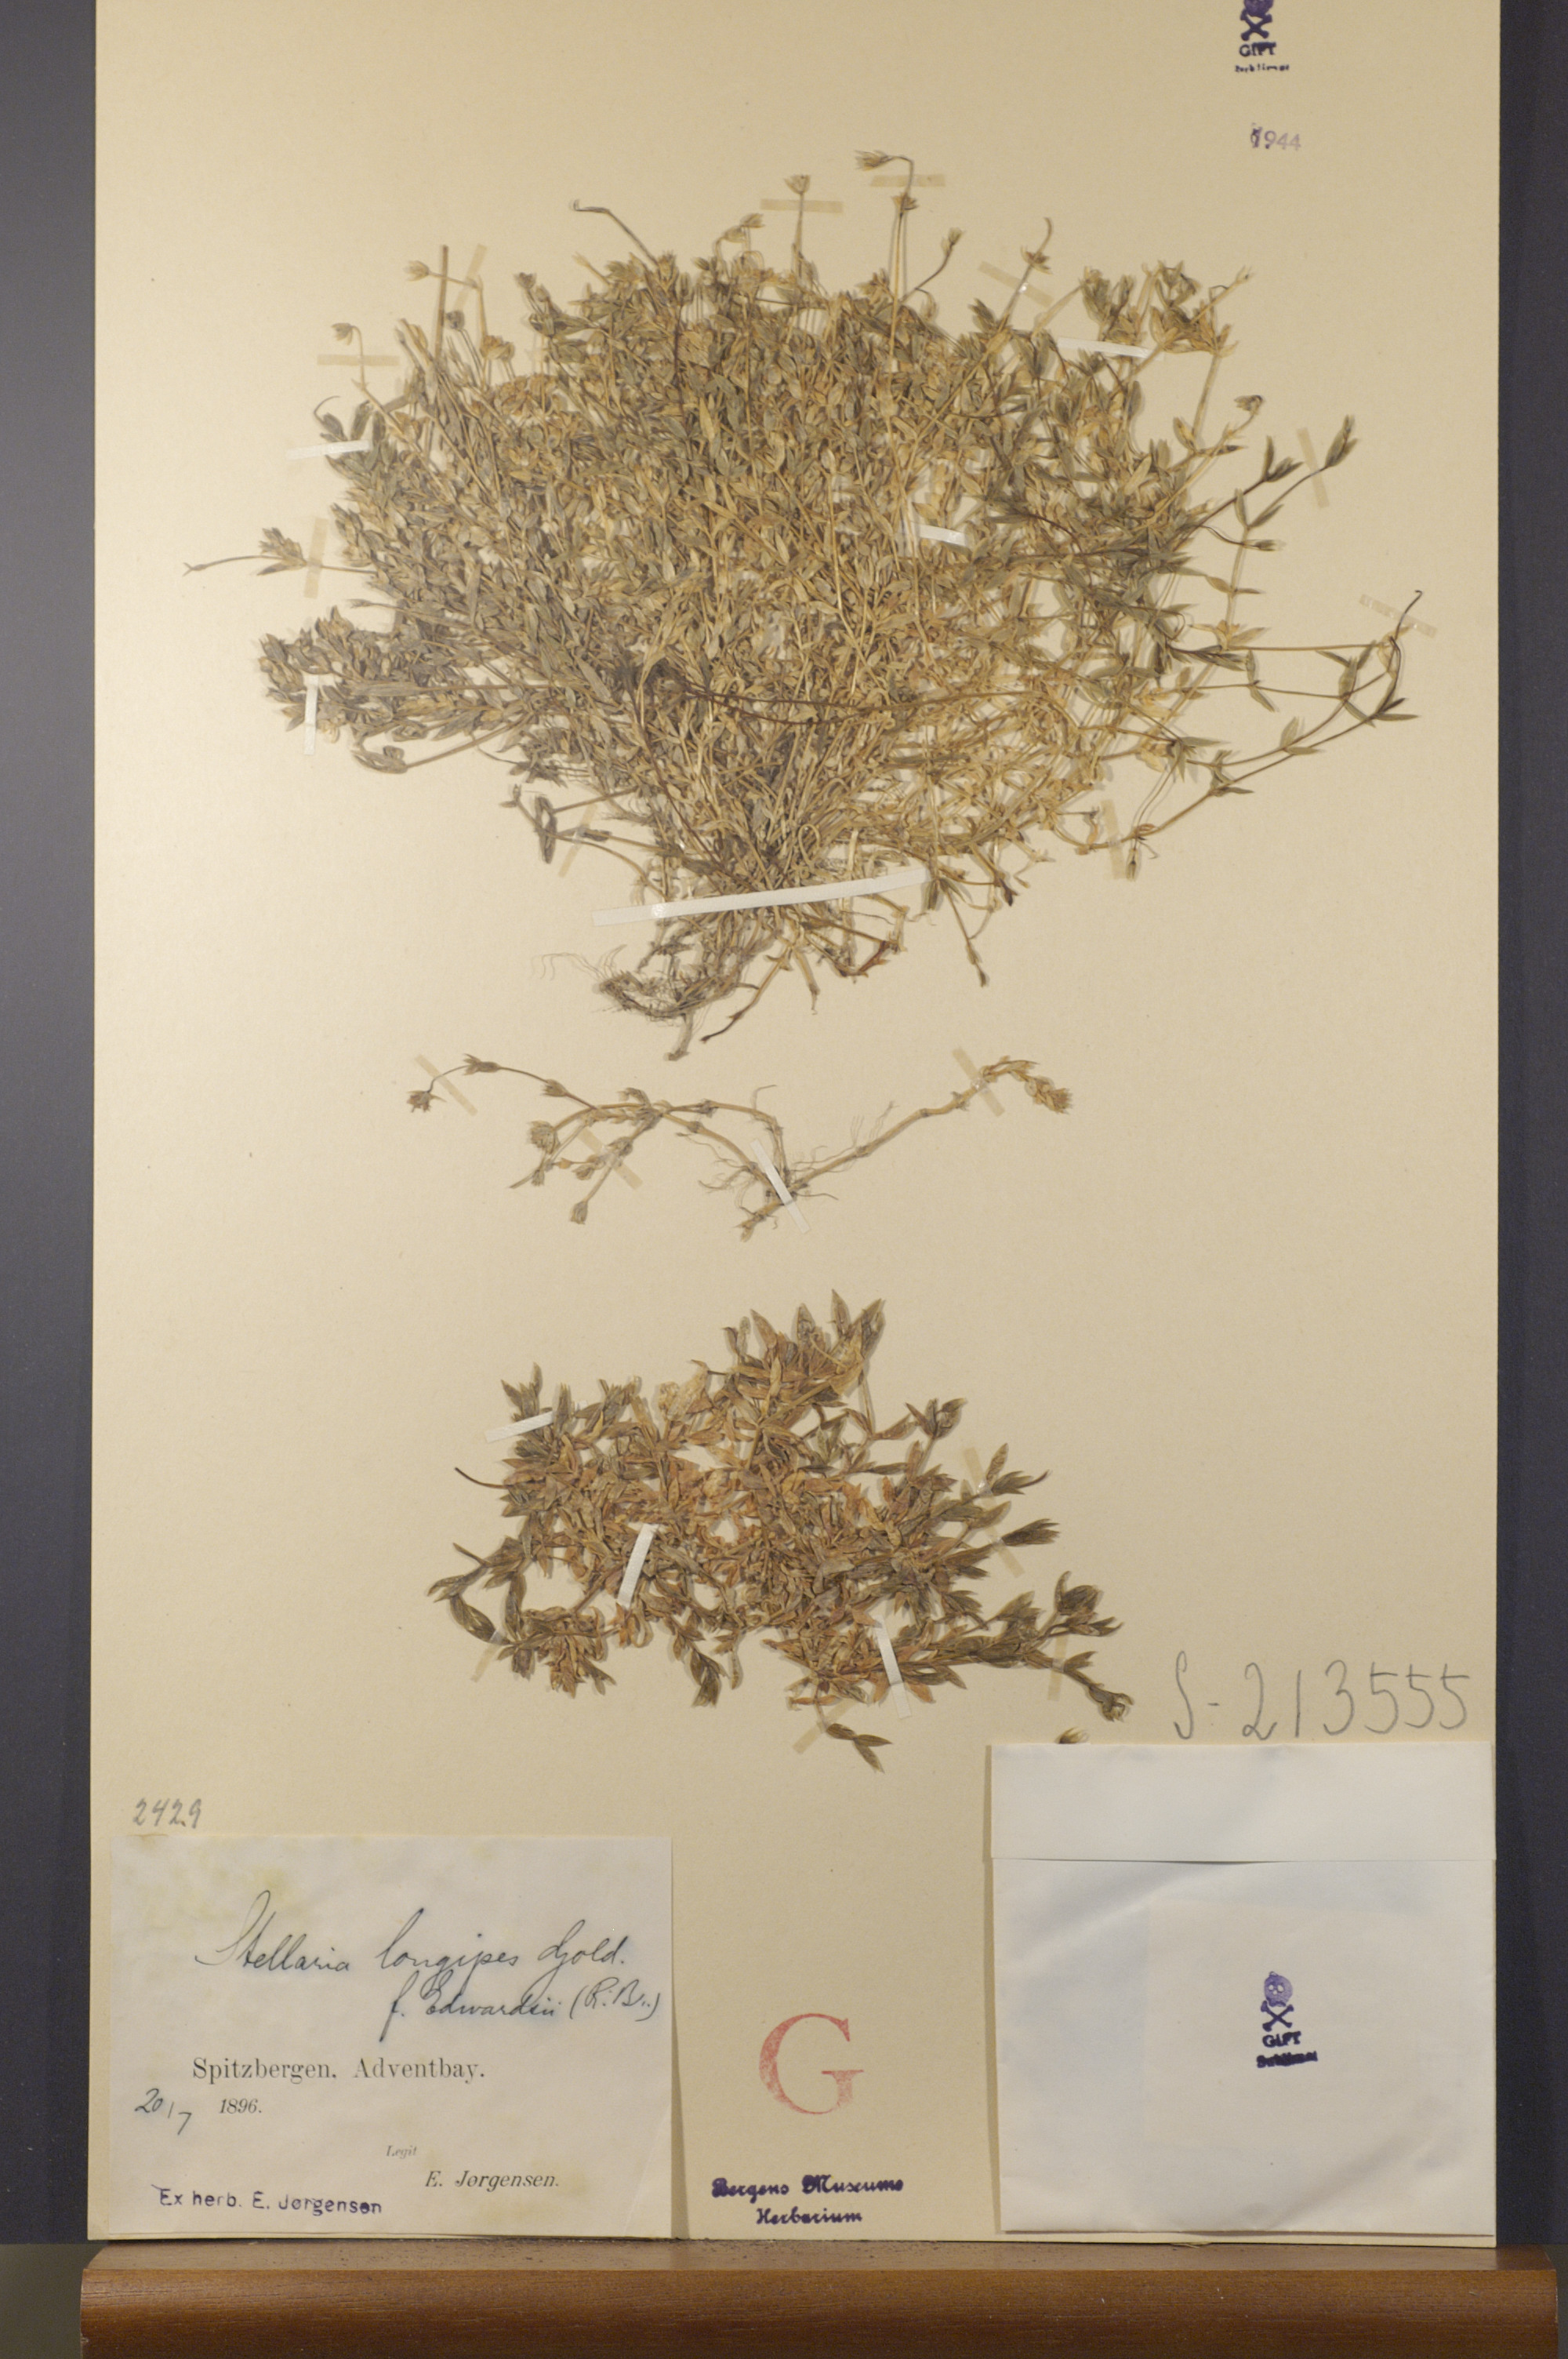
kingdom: Plantae
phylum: Tracheophyta
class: Magnoliopsida
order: Caryophyllales
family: Caryophyllaceae
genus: Stellaria
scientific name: Stellaria longipes
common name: Goldie's starwort
